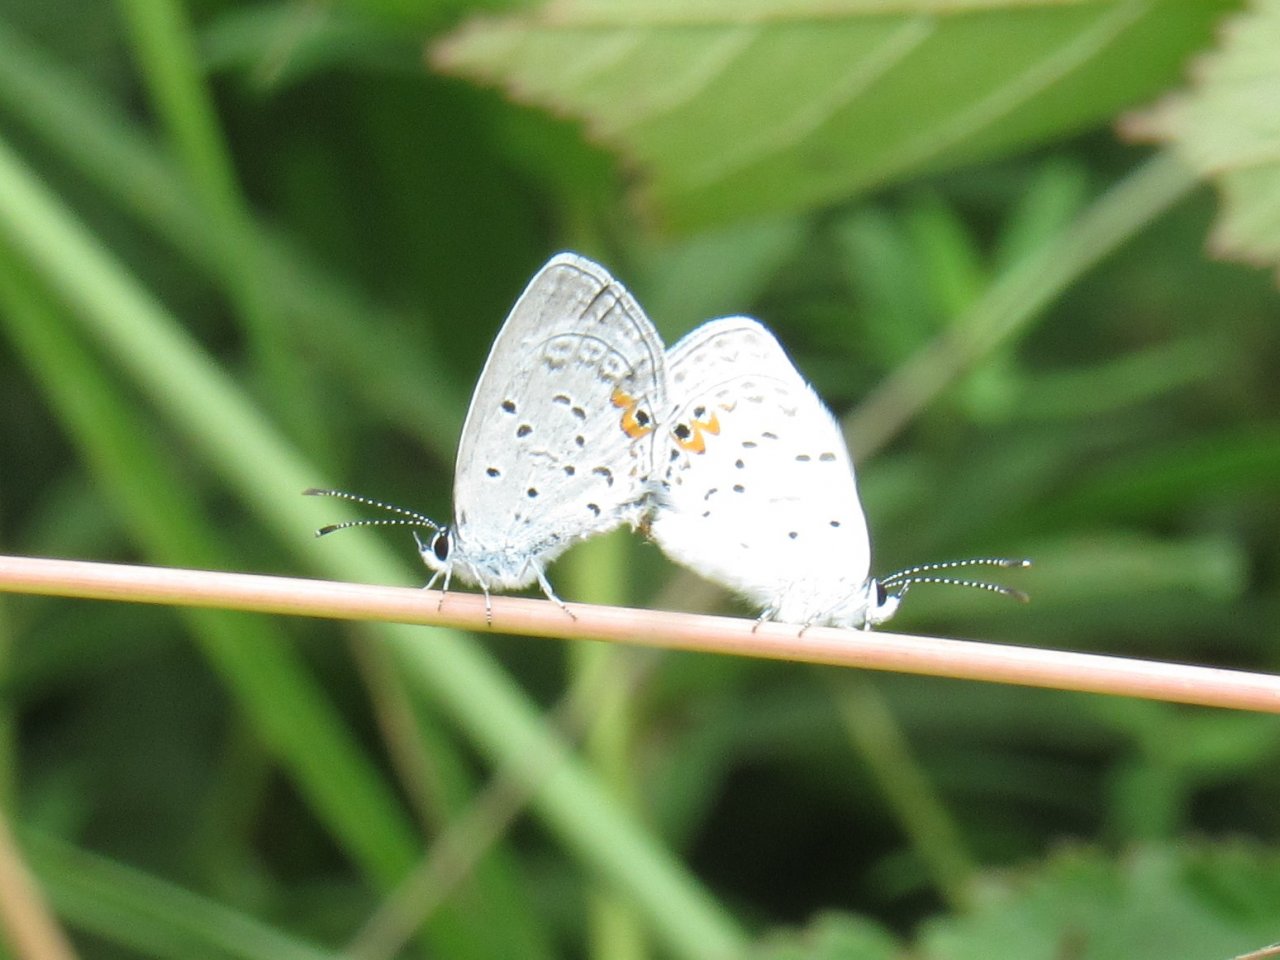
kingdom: Animalia
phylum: Arthropoda
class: Insecta
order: Lepidoptera
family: Lycaenidae
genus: Elkalyce
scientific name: Elkalyce comyntas
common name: Eastern Tailed-Blue
